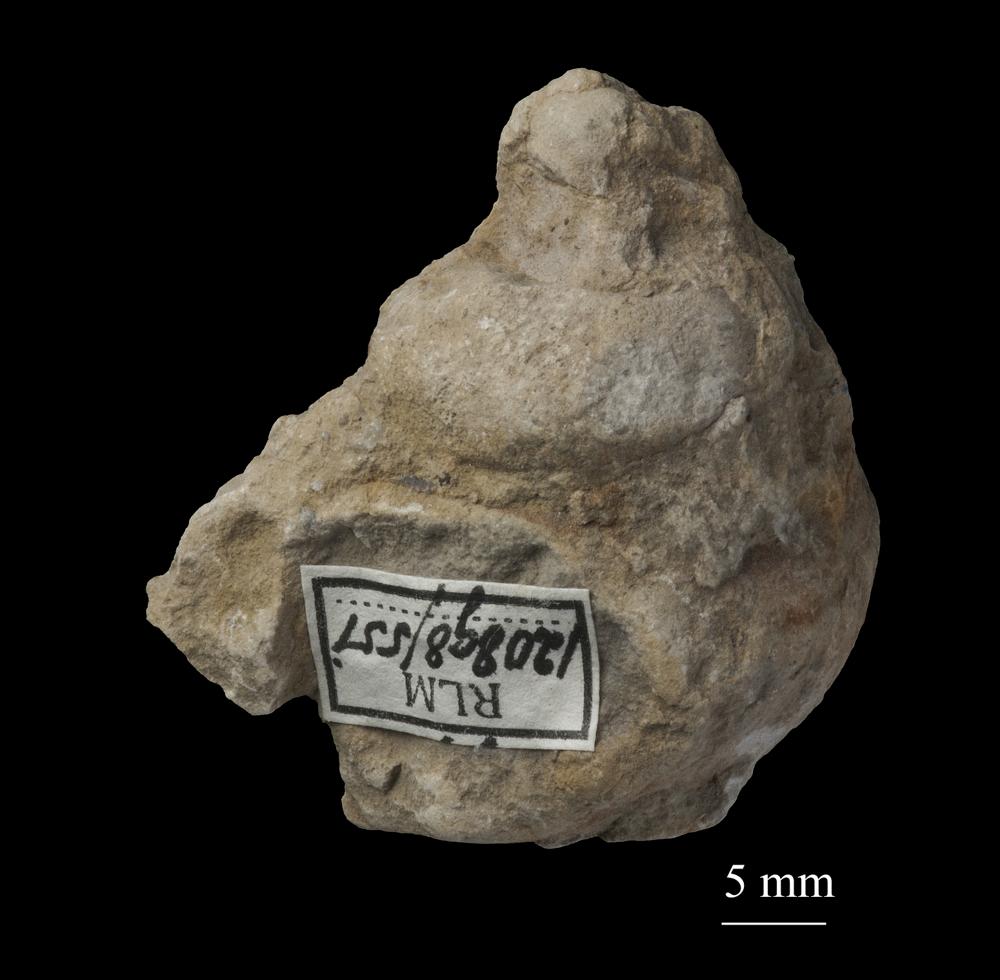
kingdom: Animalia
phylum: Mollusca
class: Gastropoda
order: Pleurotomariida
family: Phymatopleuridae
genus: Worthenia
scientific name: Worthenia
